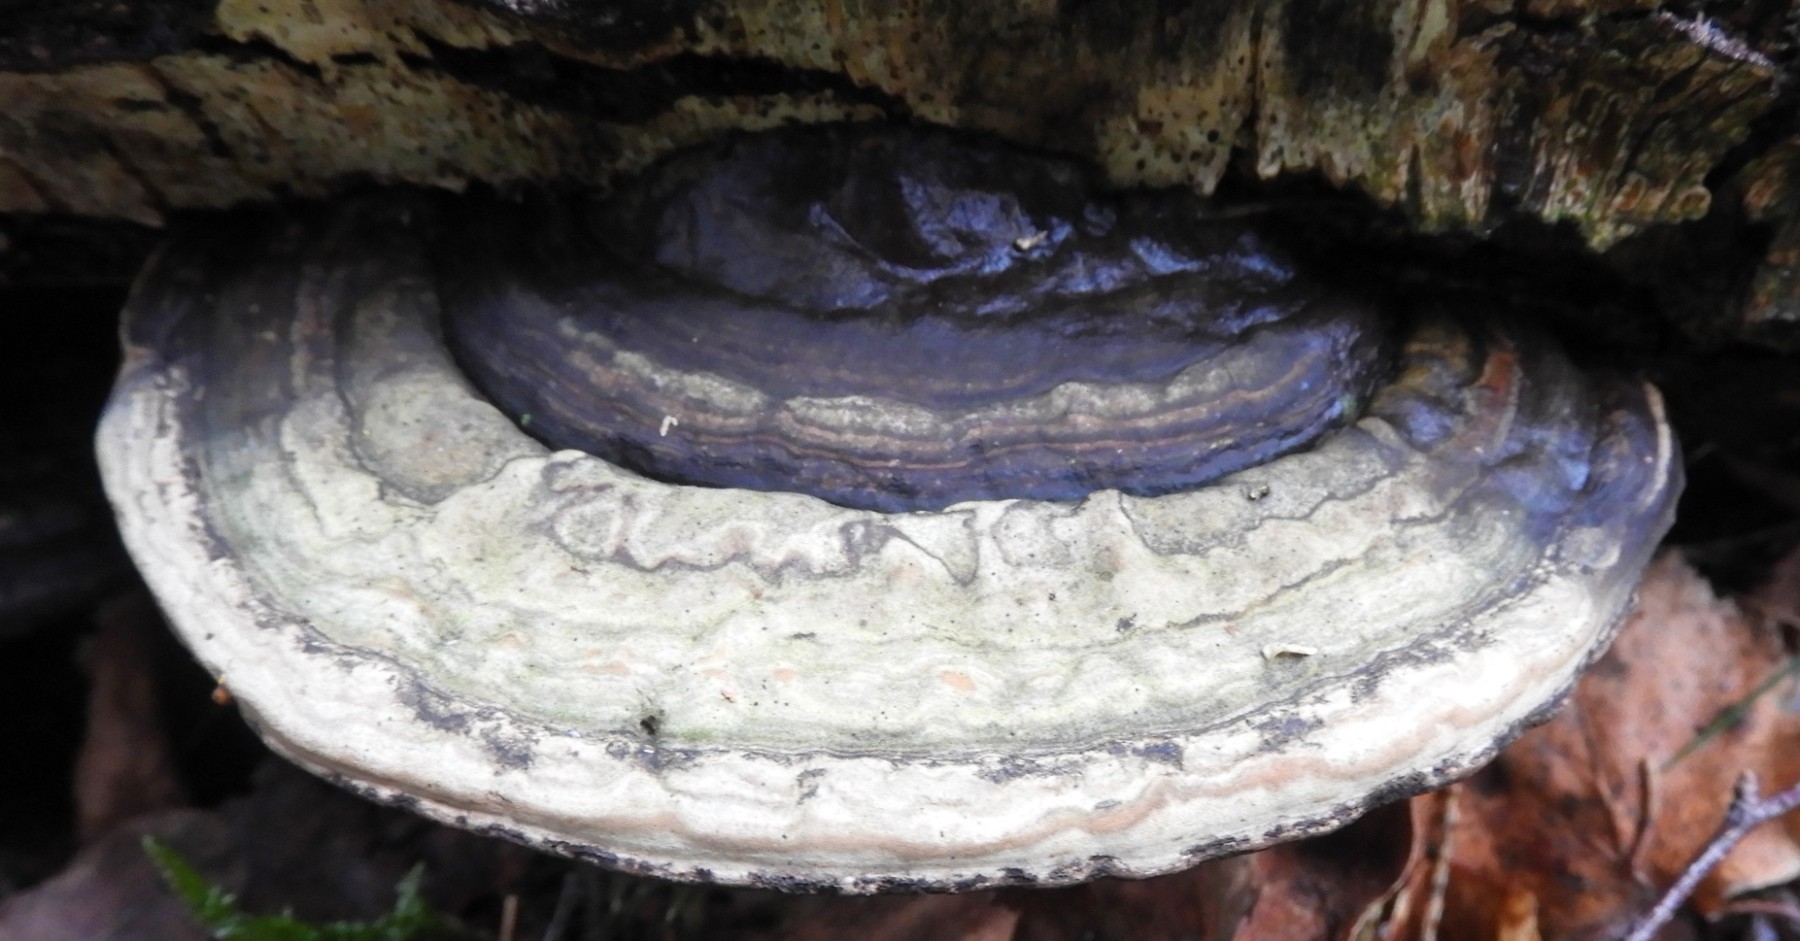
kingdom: Fungi
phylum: Basidiomycota
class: Agaricomycetes
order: Polyporales
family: Polyporaceae
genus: Fomes
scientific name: Fomes fomentarius
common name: tøndersvamp
